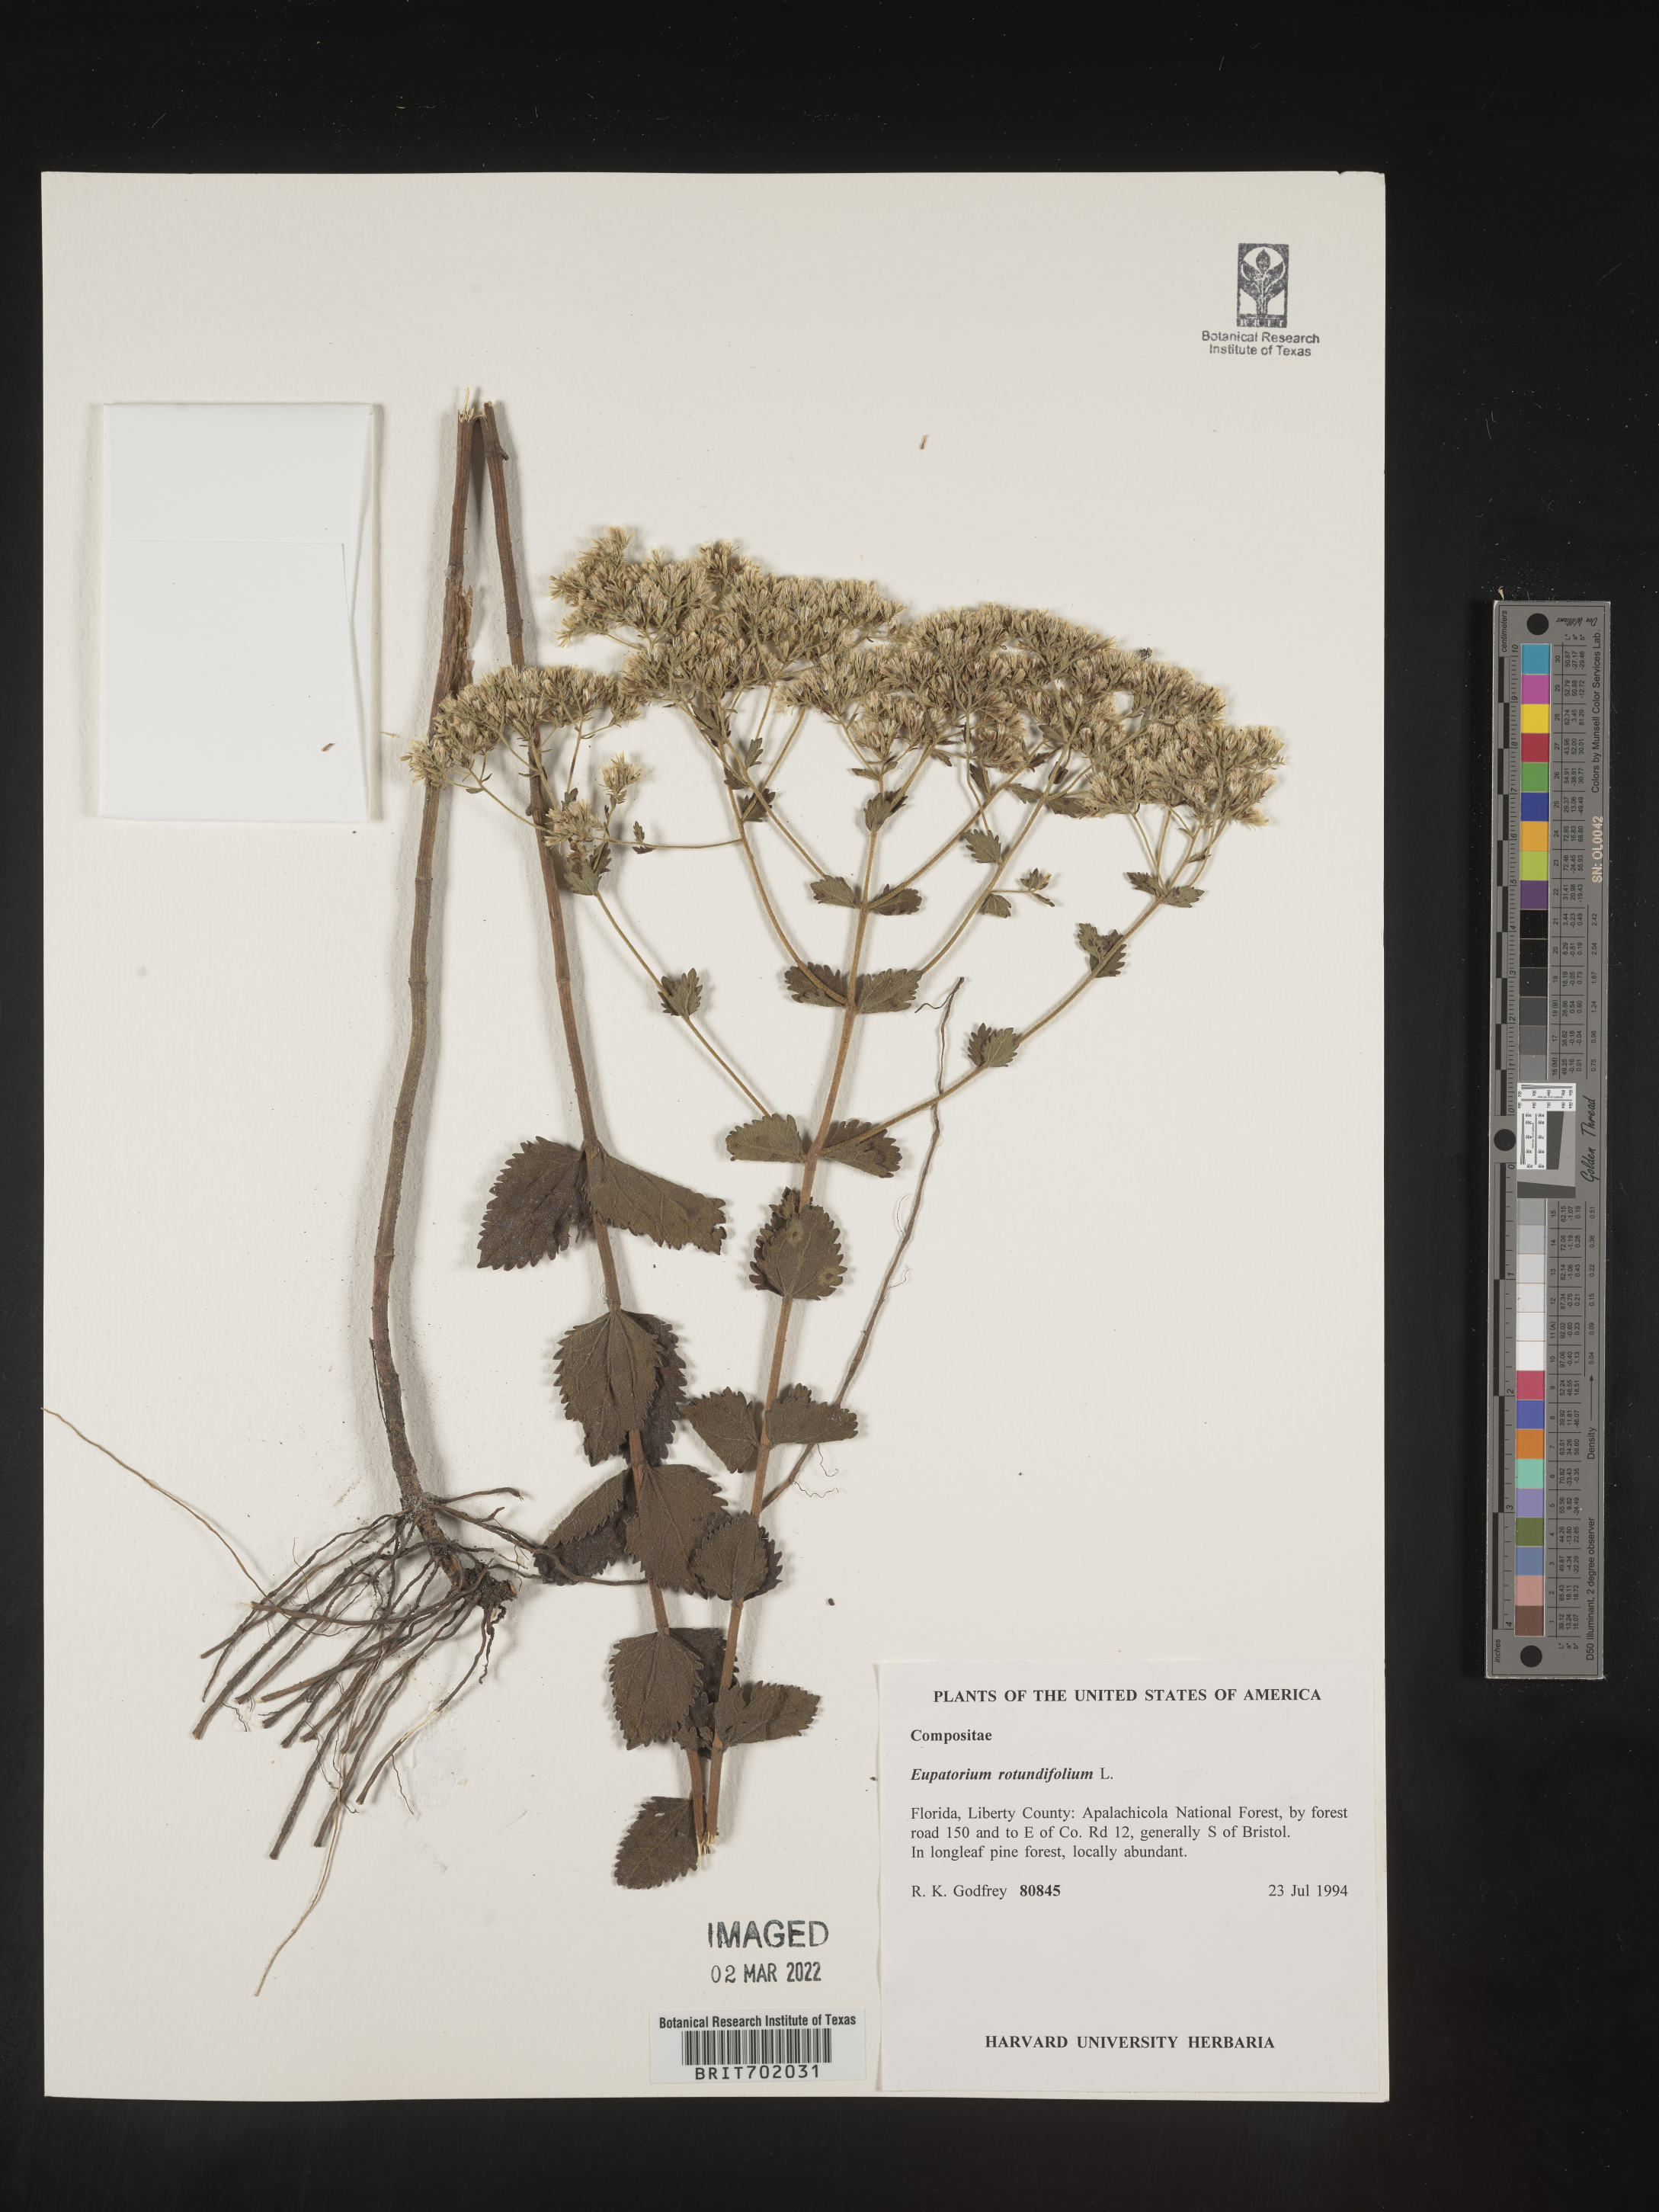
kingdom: Plantae
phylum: Tracheophyta
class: Magnoliopsida
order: Asterales
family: Asteraceae
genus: Eupatorium
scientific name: Eupatorium rotundifolium
